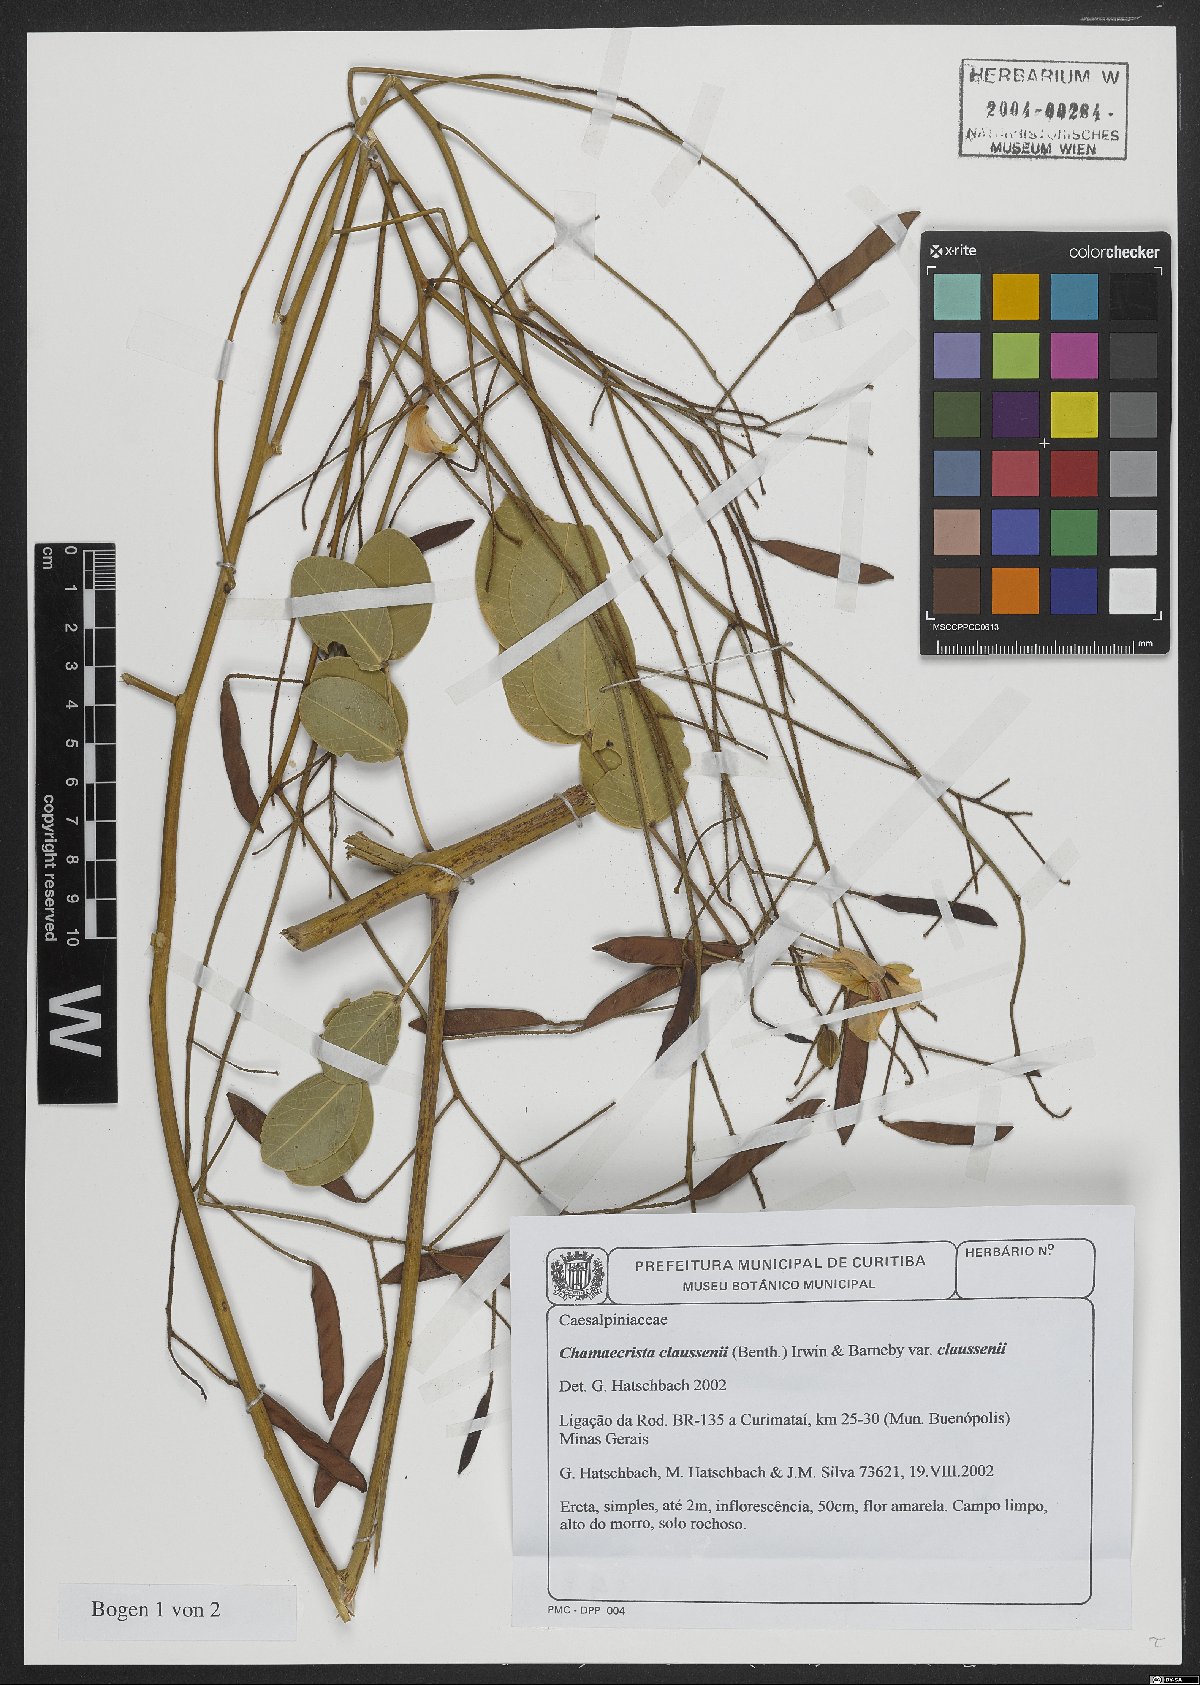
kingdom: Plantae
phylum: Tracheophyta
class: Magnoliopsida
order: Fabales
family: Fabaceae
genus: Chamaecrista
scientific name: Chamaecrista claussenii
